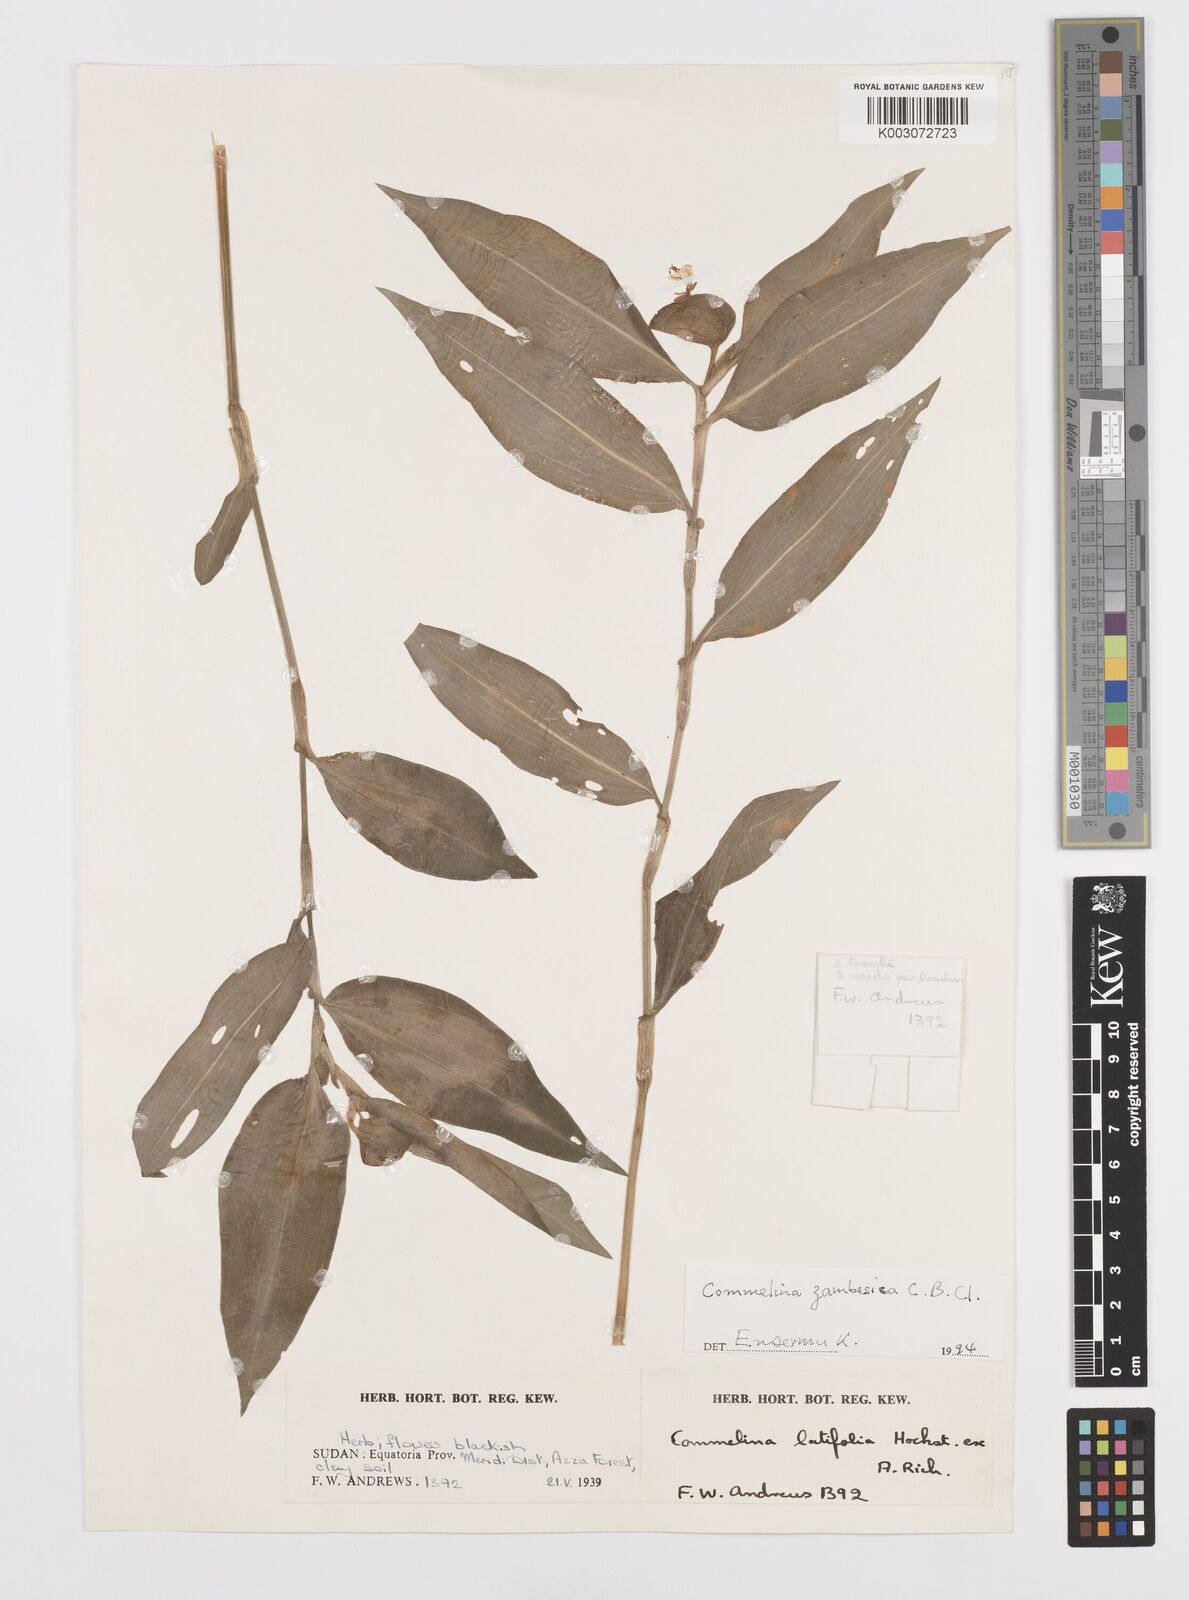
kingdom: Plantae
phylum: Tracheophyta
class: Liliopsida
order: Commelinales
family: Commelinaceae
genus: Commelina
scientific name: Commelina zambesica
